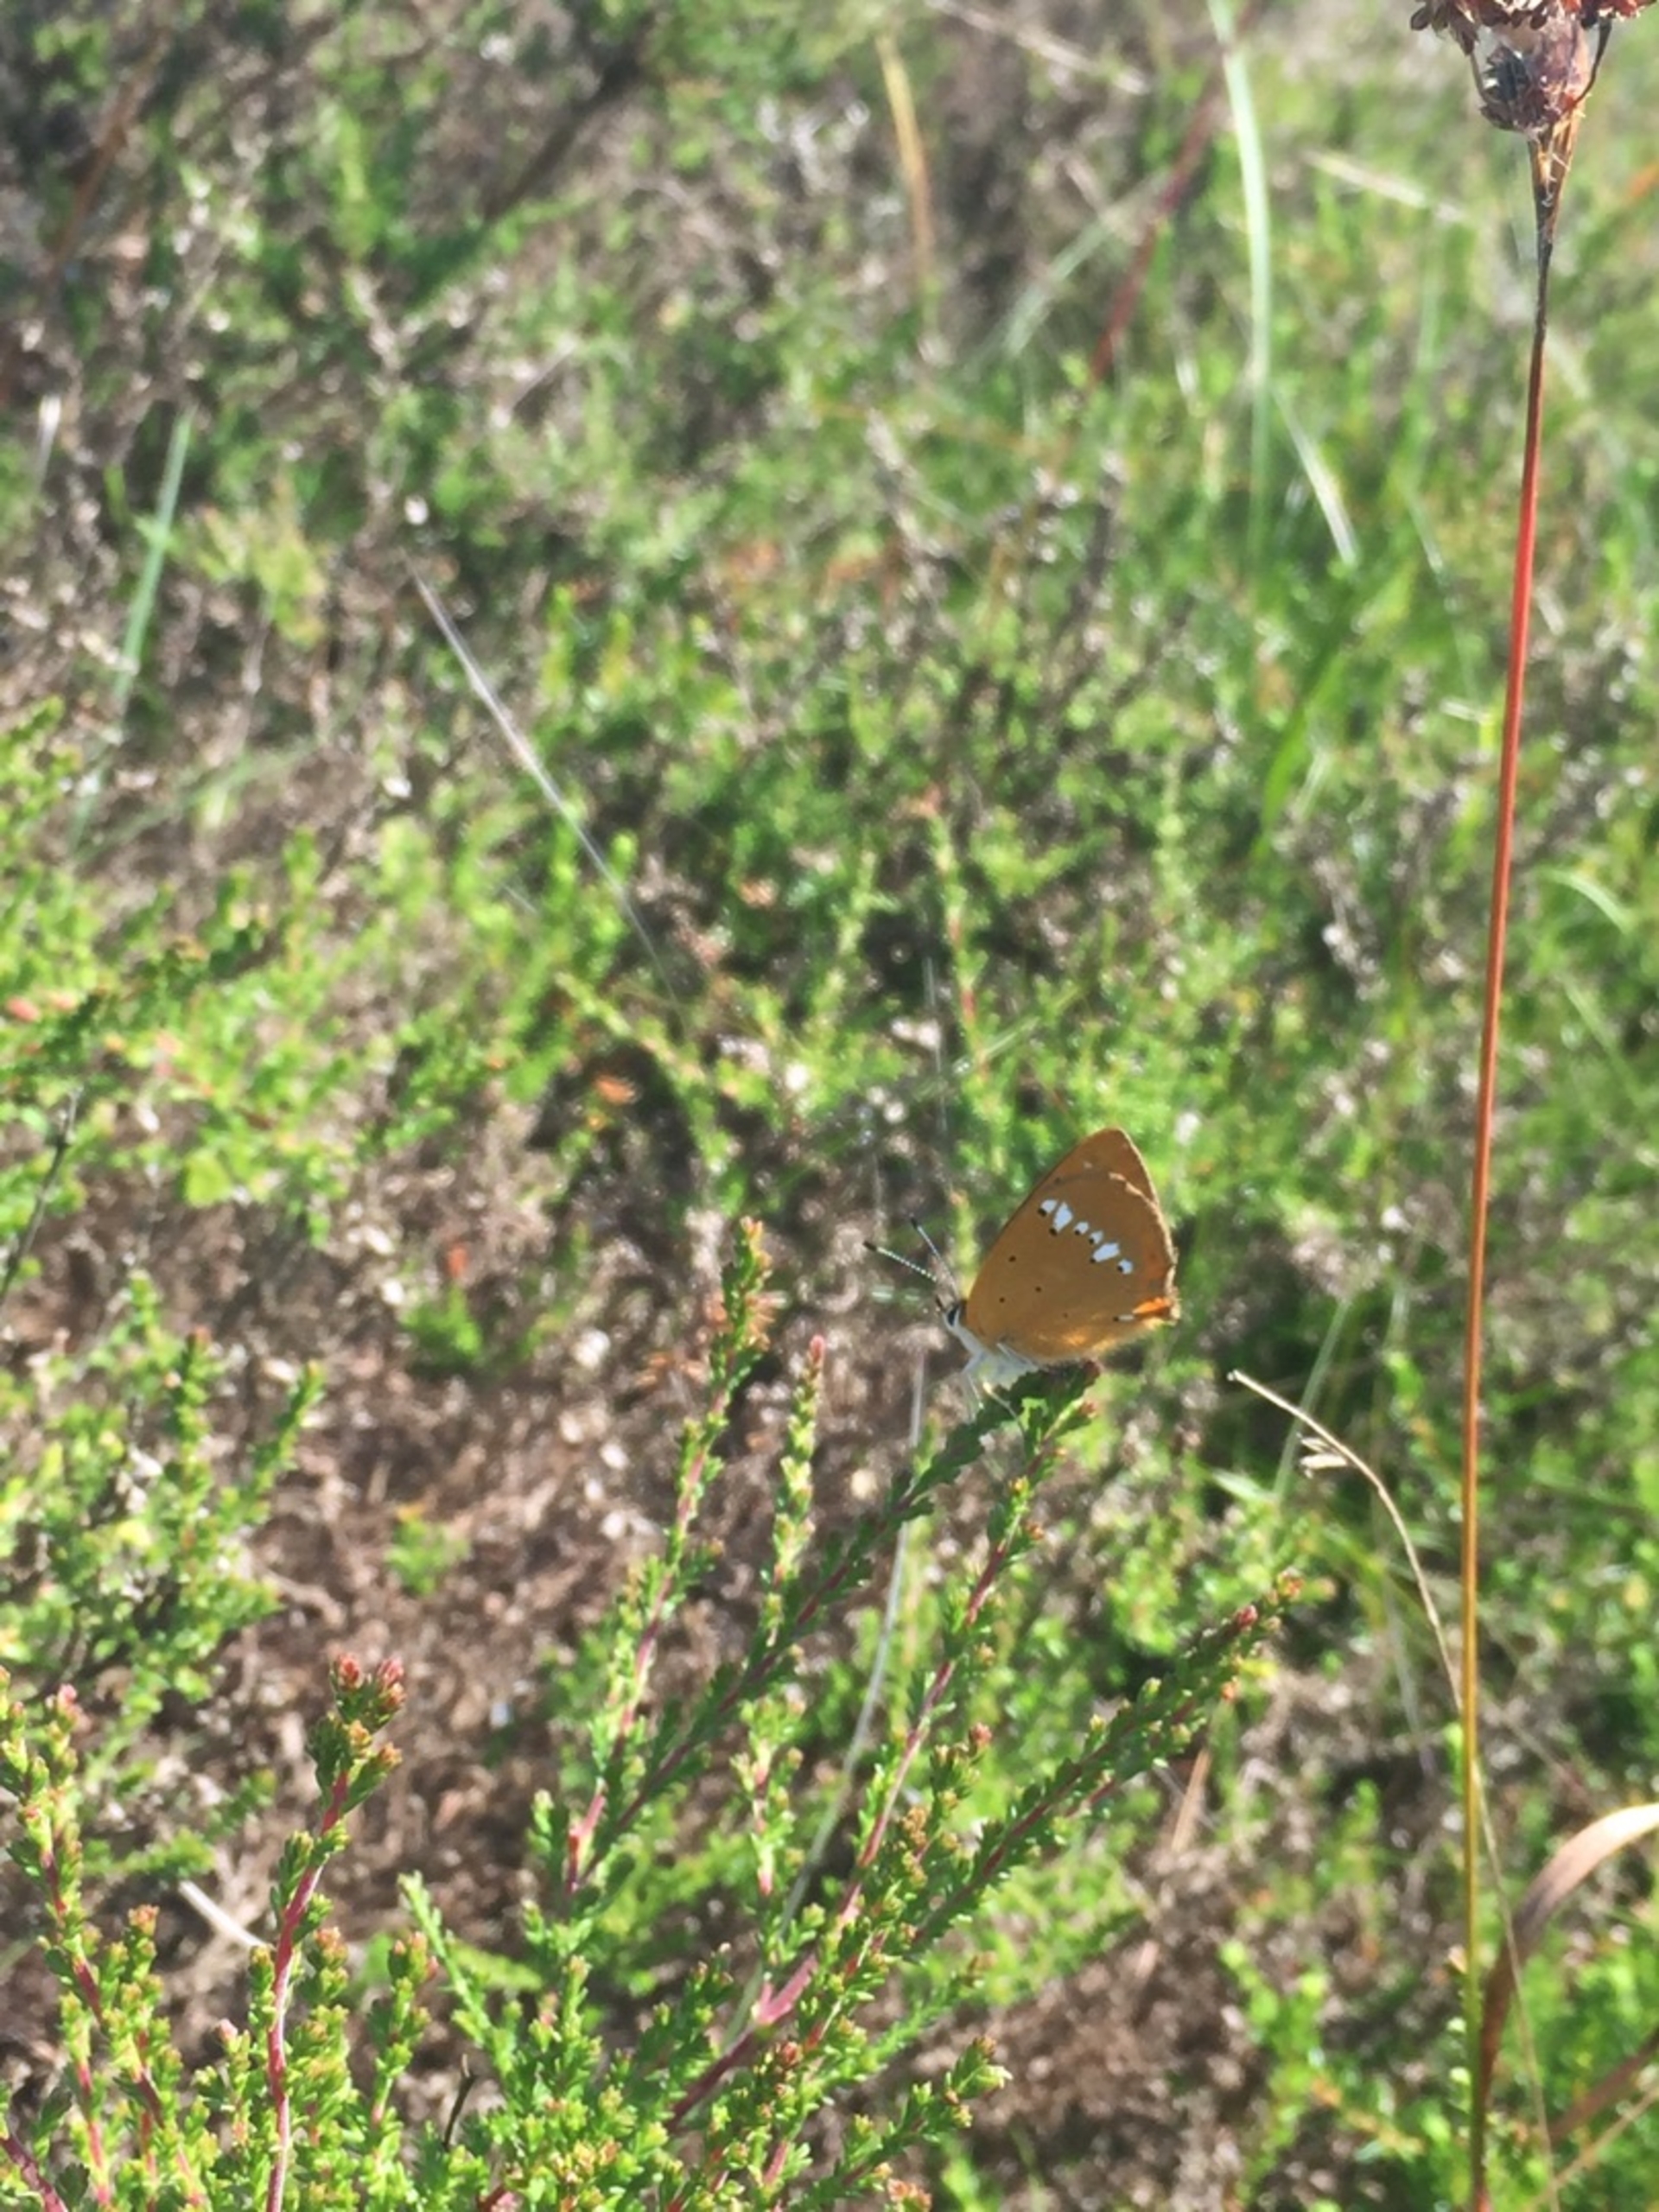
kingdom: Animalia
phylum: Arthropoda
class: Insecta
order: Lepidoptera
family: Lycaenidae
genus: Lycaena
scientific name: Lycaena virgaureae
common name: Dukatsommerfugl
